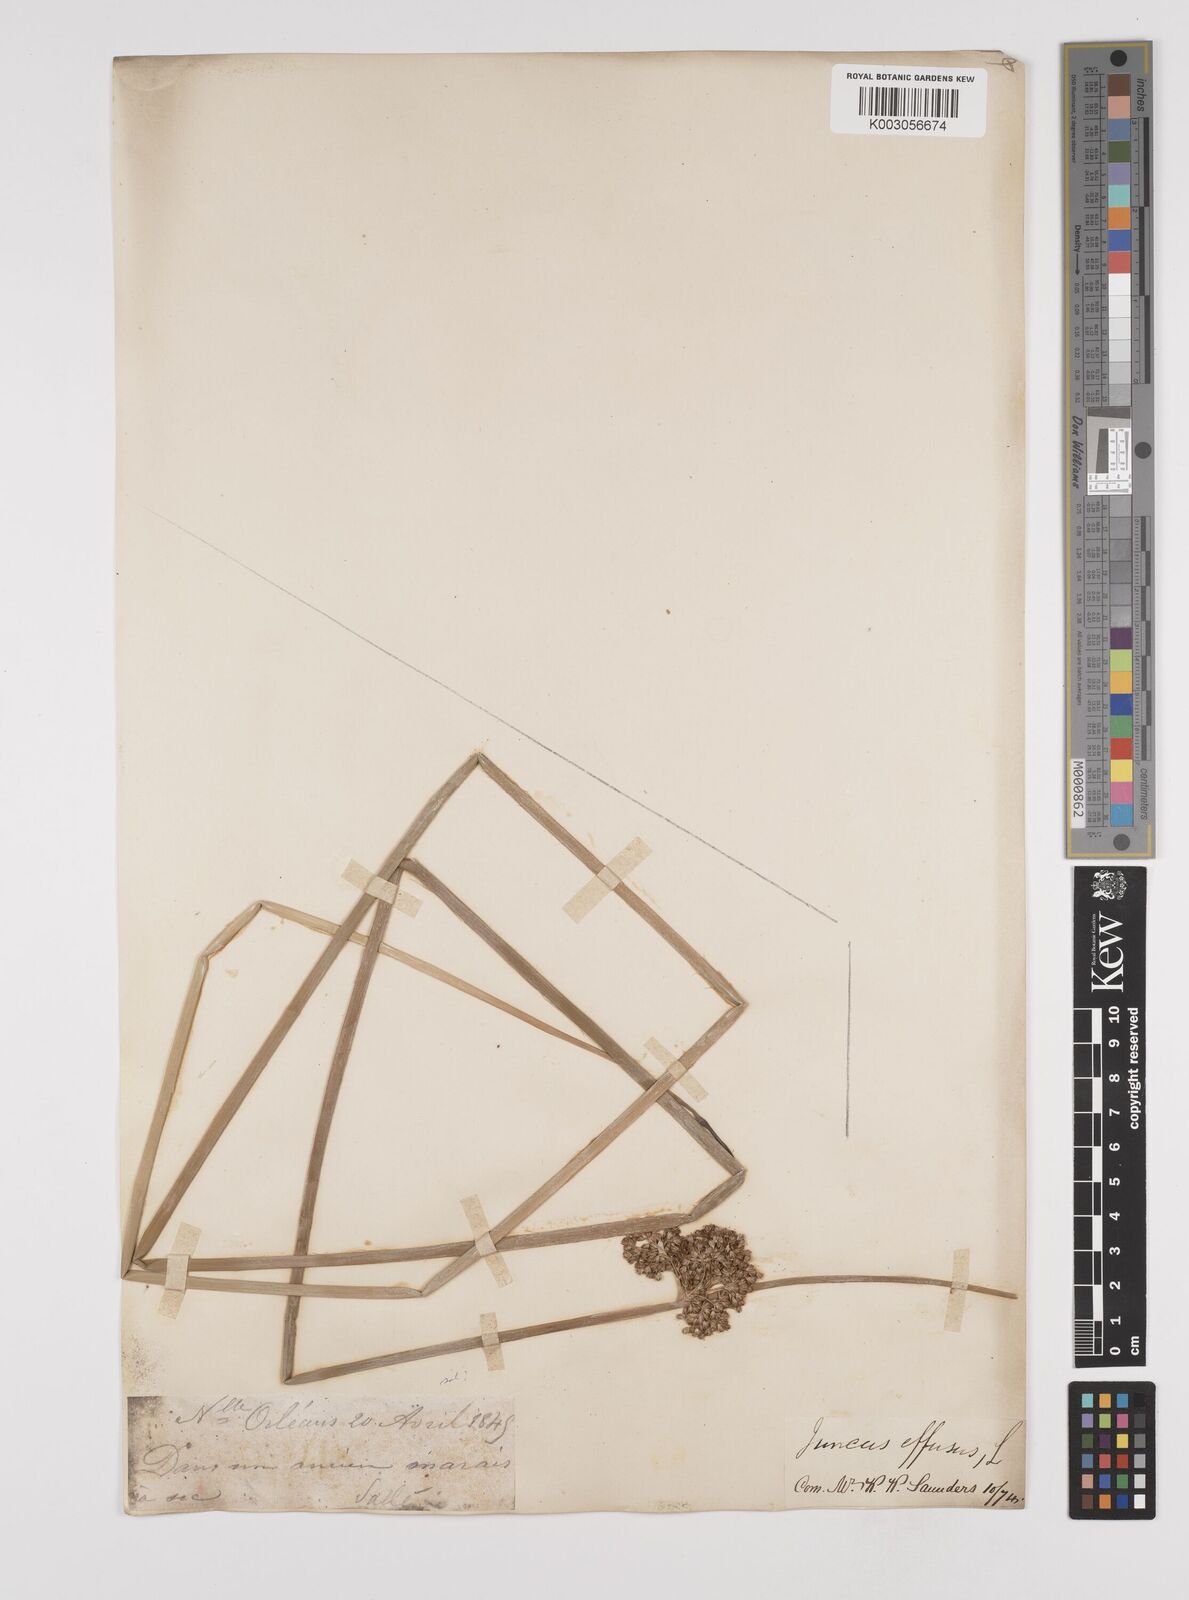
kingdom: Plantae
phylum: Tracheophyta
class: Liliopsida
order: Poales
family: Juncaceae
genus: Juncus
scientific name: Juncus effusus
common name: Soft rush
